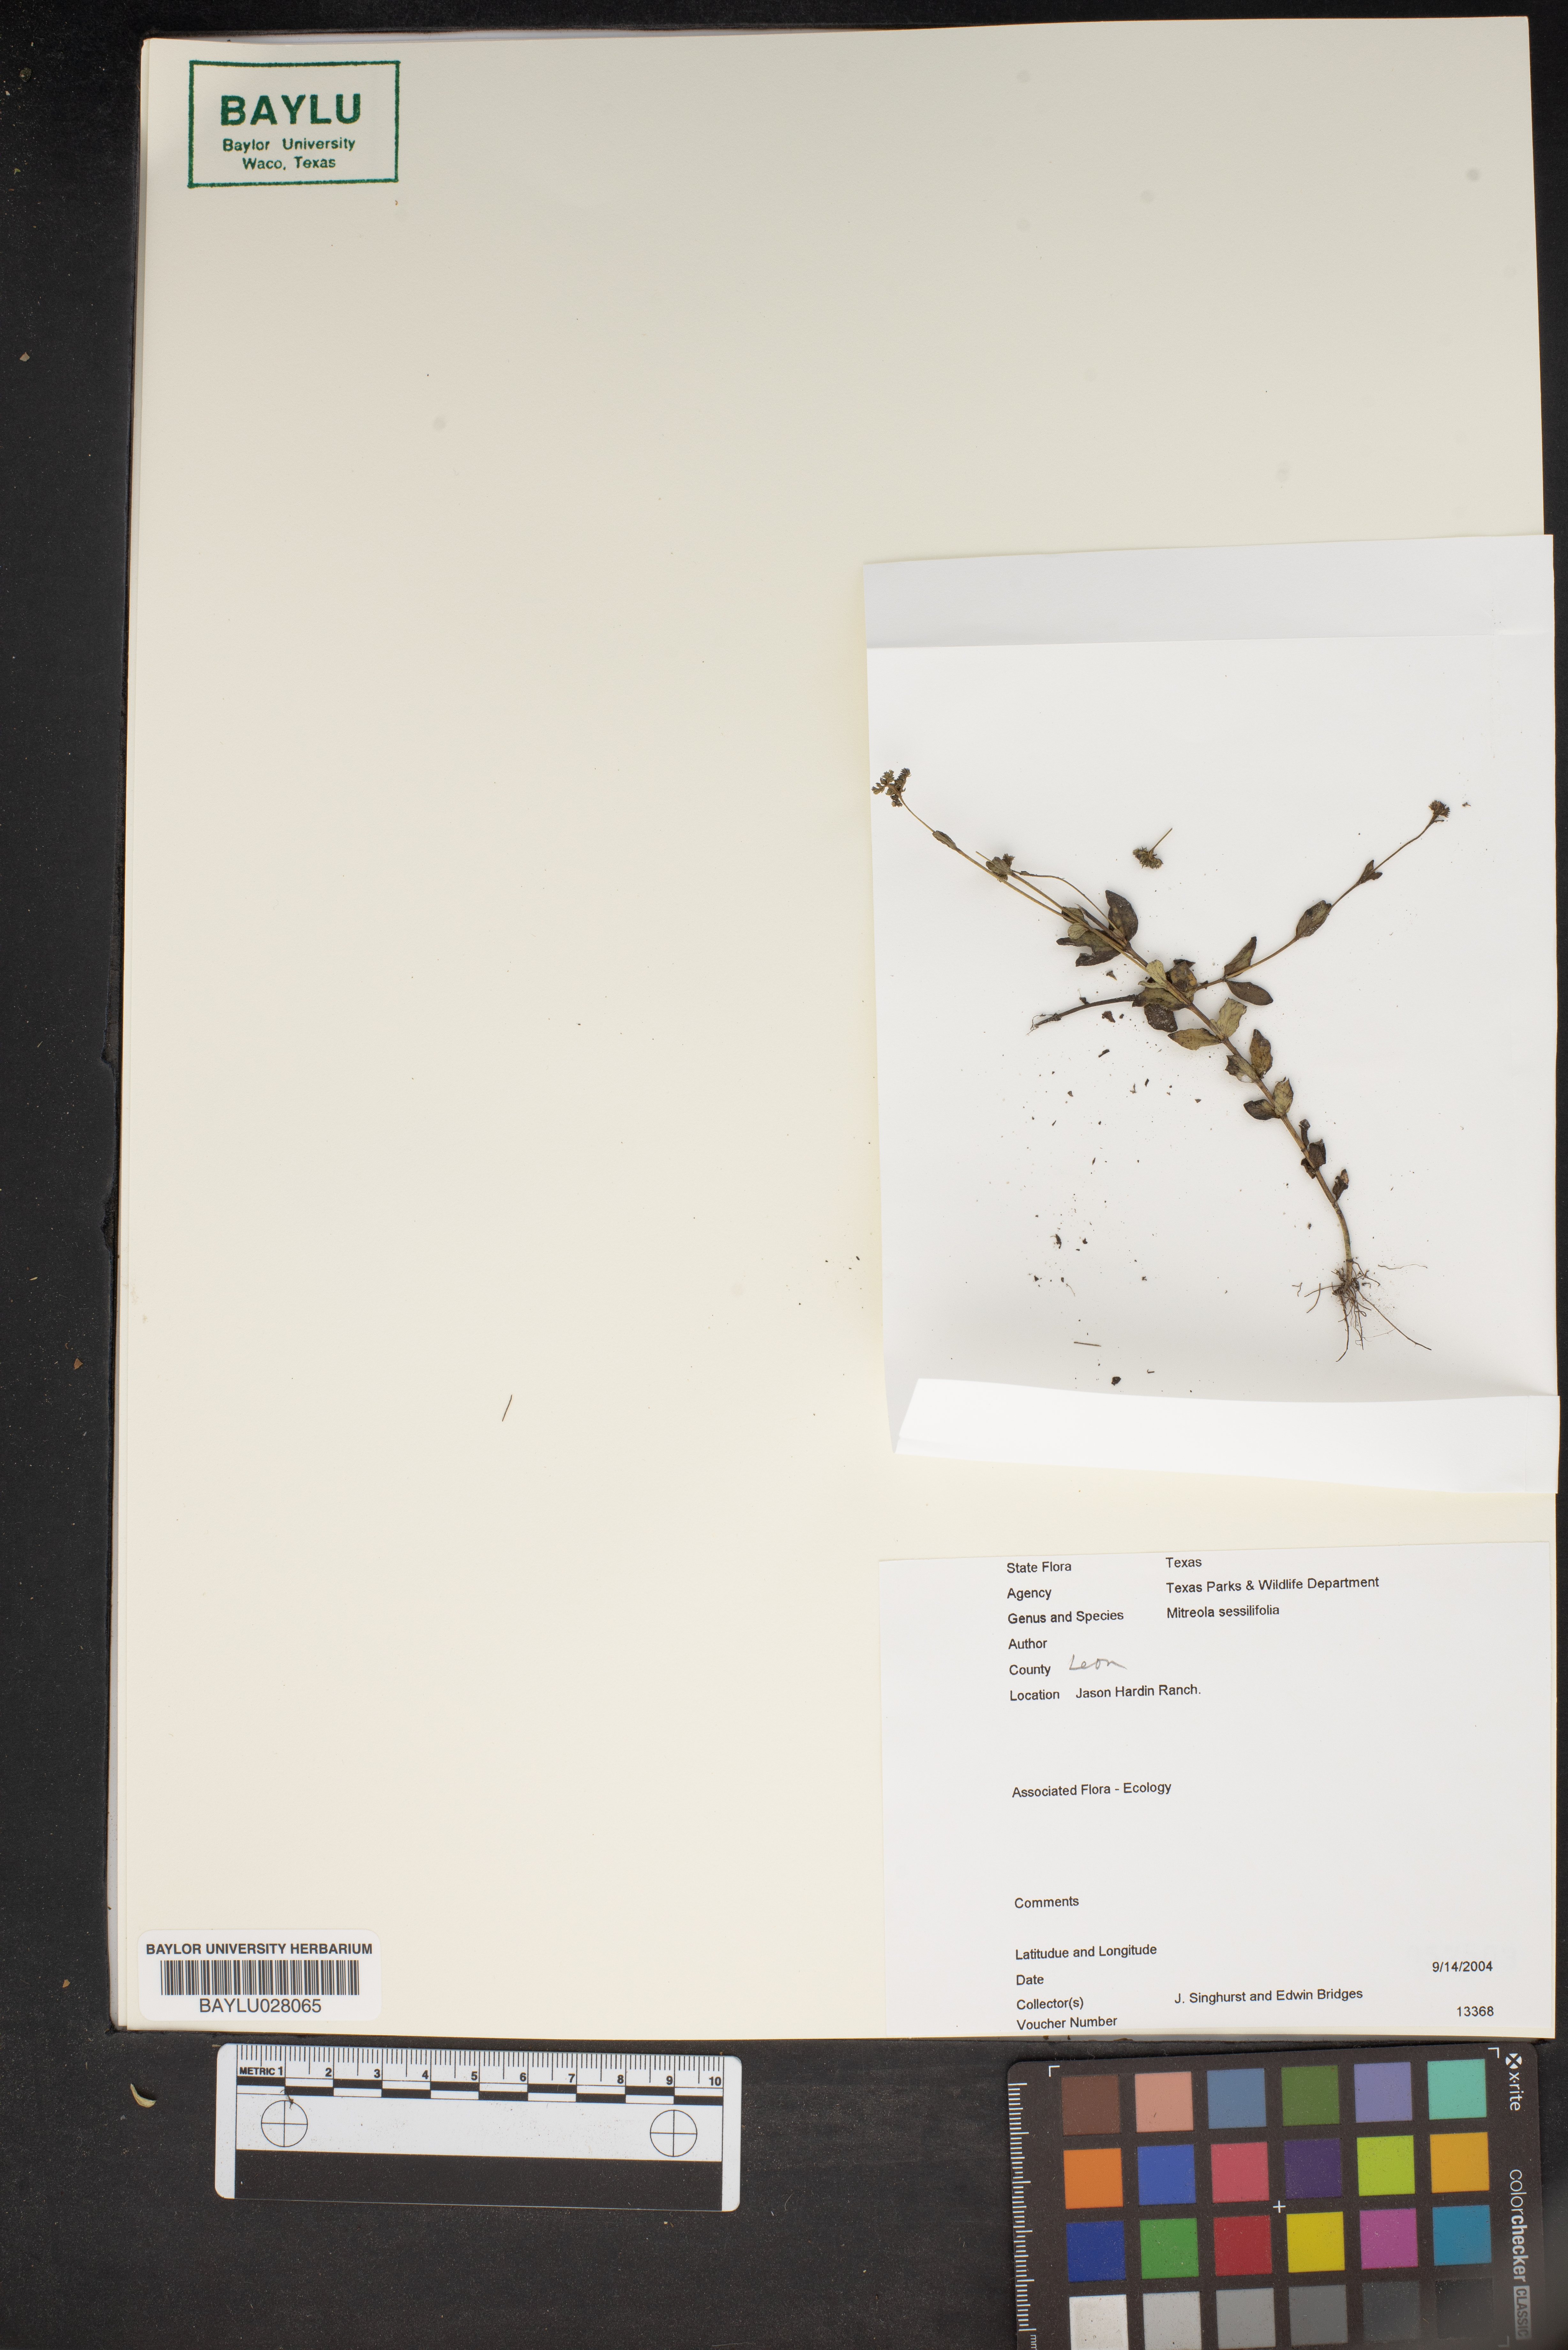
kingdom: Plantae
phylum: Tracheophyta
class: Magnoliopsida
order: Gentianales
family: Loganiaceae
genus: Mitreola
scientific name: Mitreola sessilifolia
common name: Swamp hornpod
